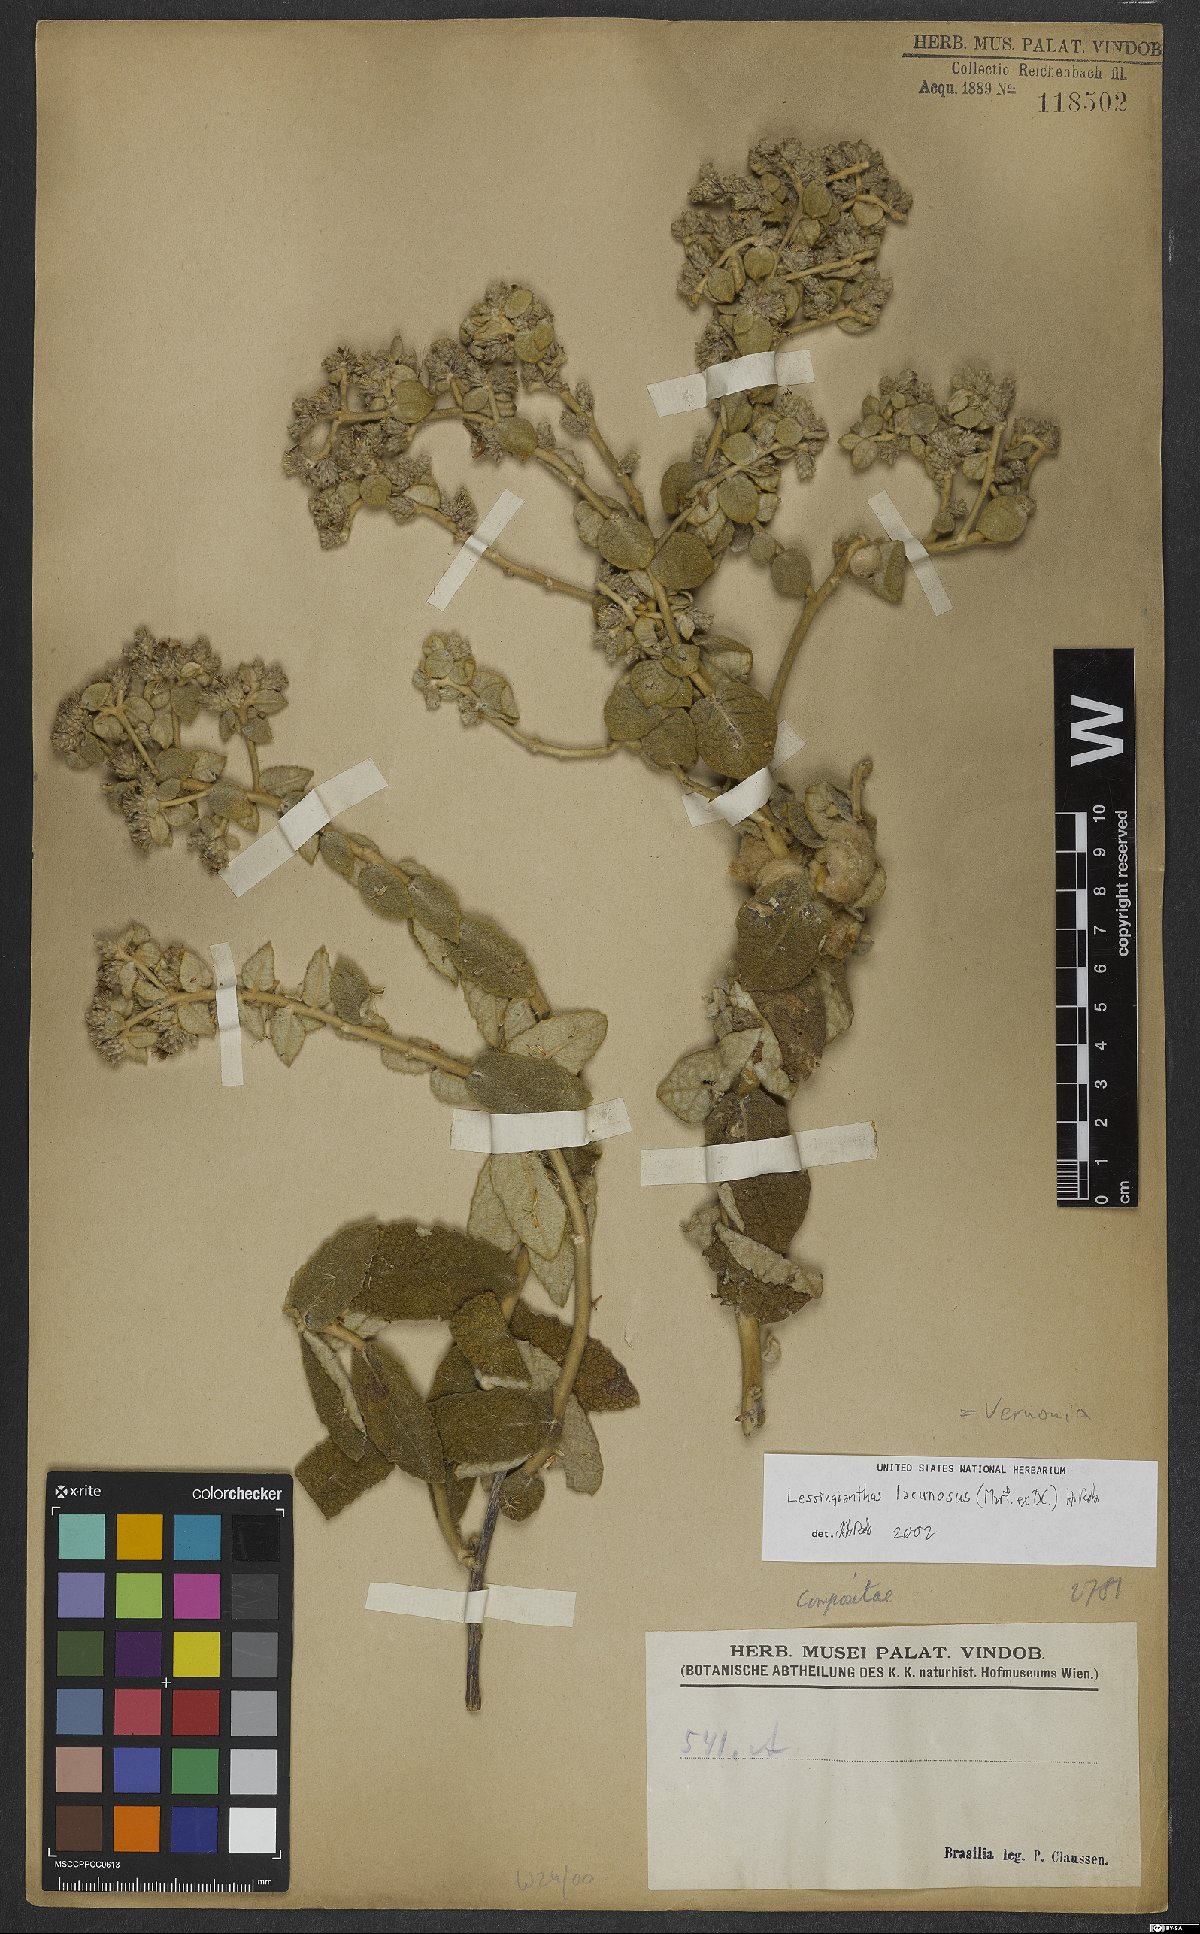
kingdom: Plantae
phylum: Tracheophyta
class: Magnoliopsida
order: Asterales
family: Asteraceae
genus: Lessingianthus
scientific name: Lessingianthus lacunosus
